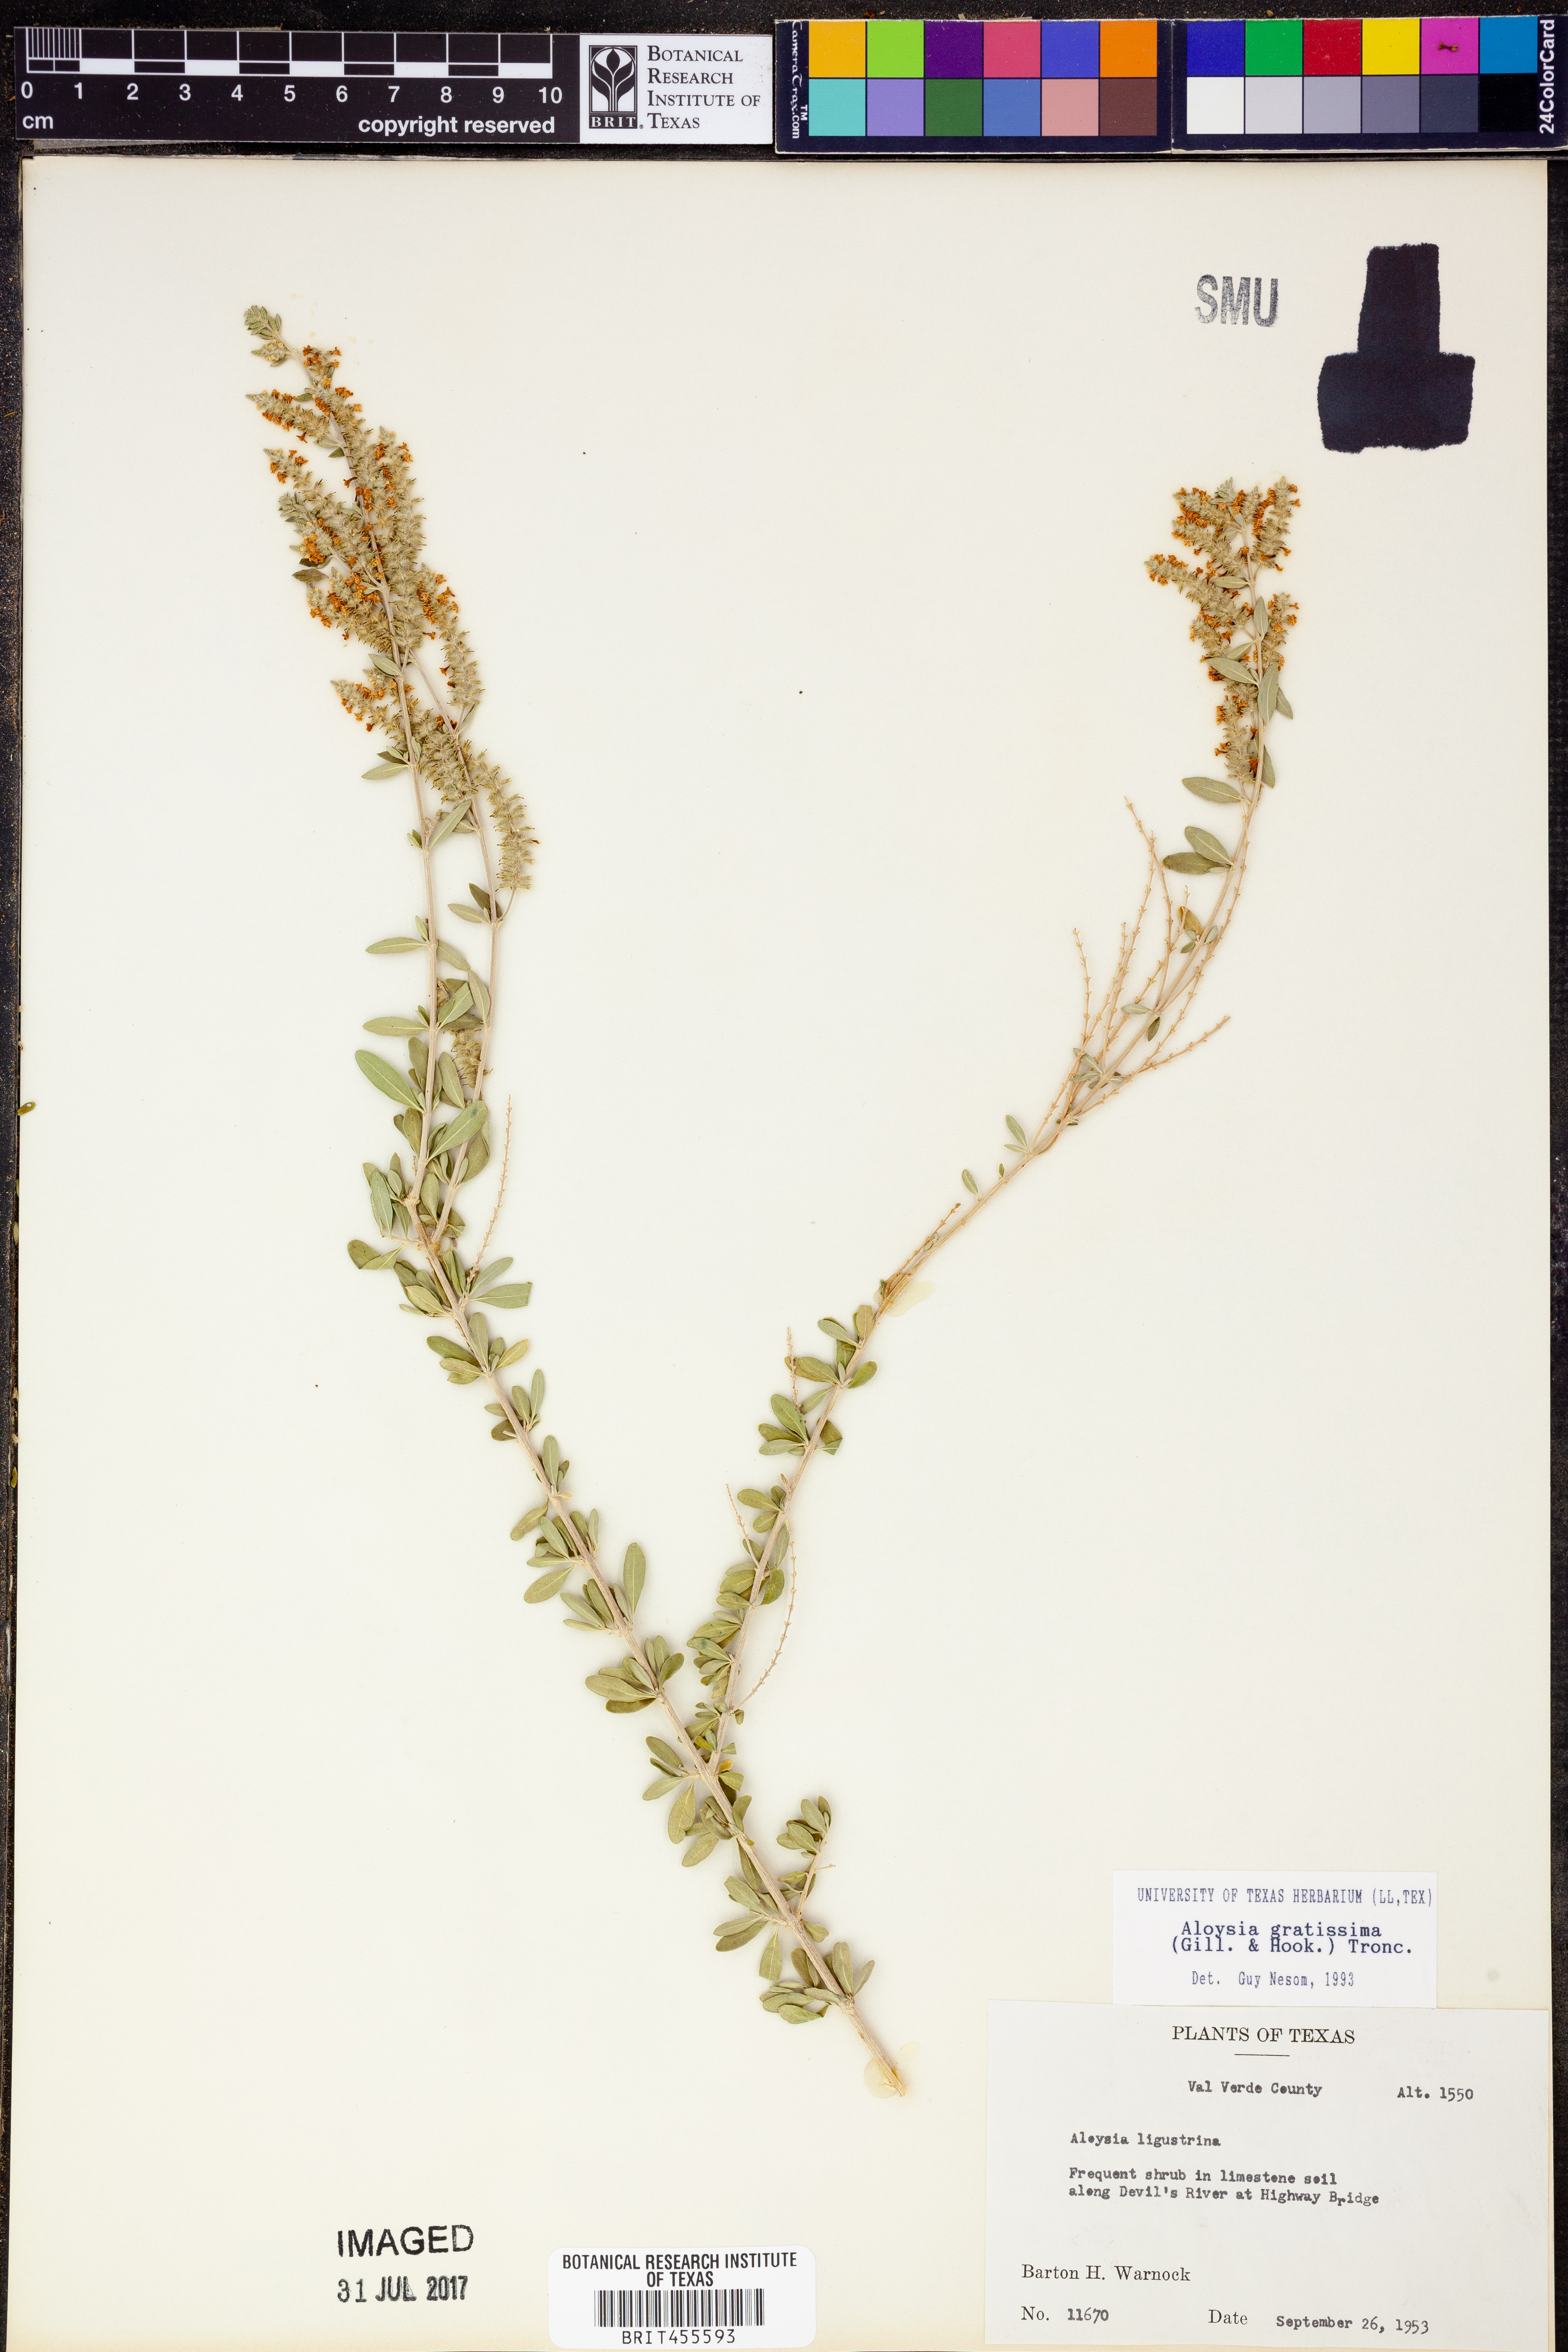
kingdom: Plantae
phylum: Tracheophyta
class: Magnoliopsida
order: Lamiales
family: Verbenaceae
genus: Mulguraea
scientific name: Mulguraea ligustrina
